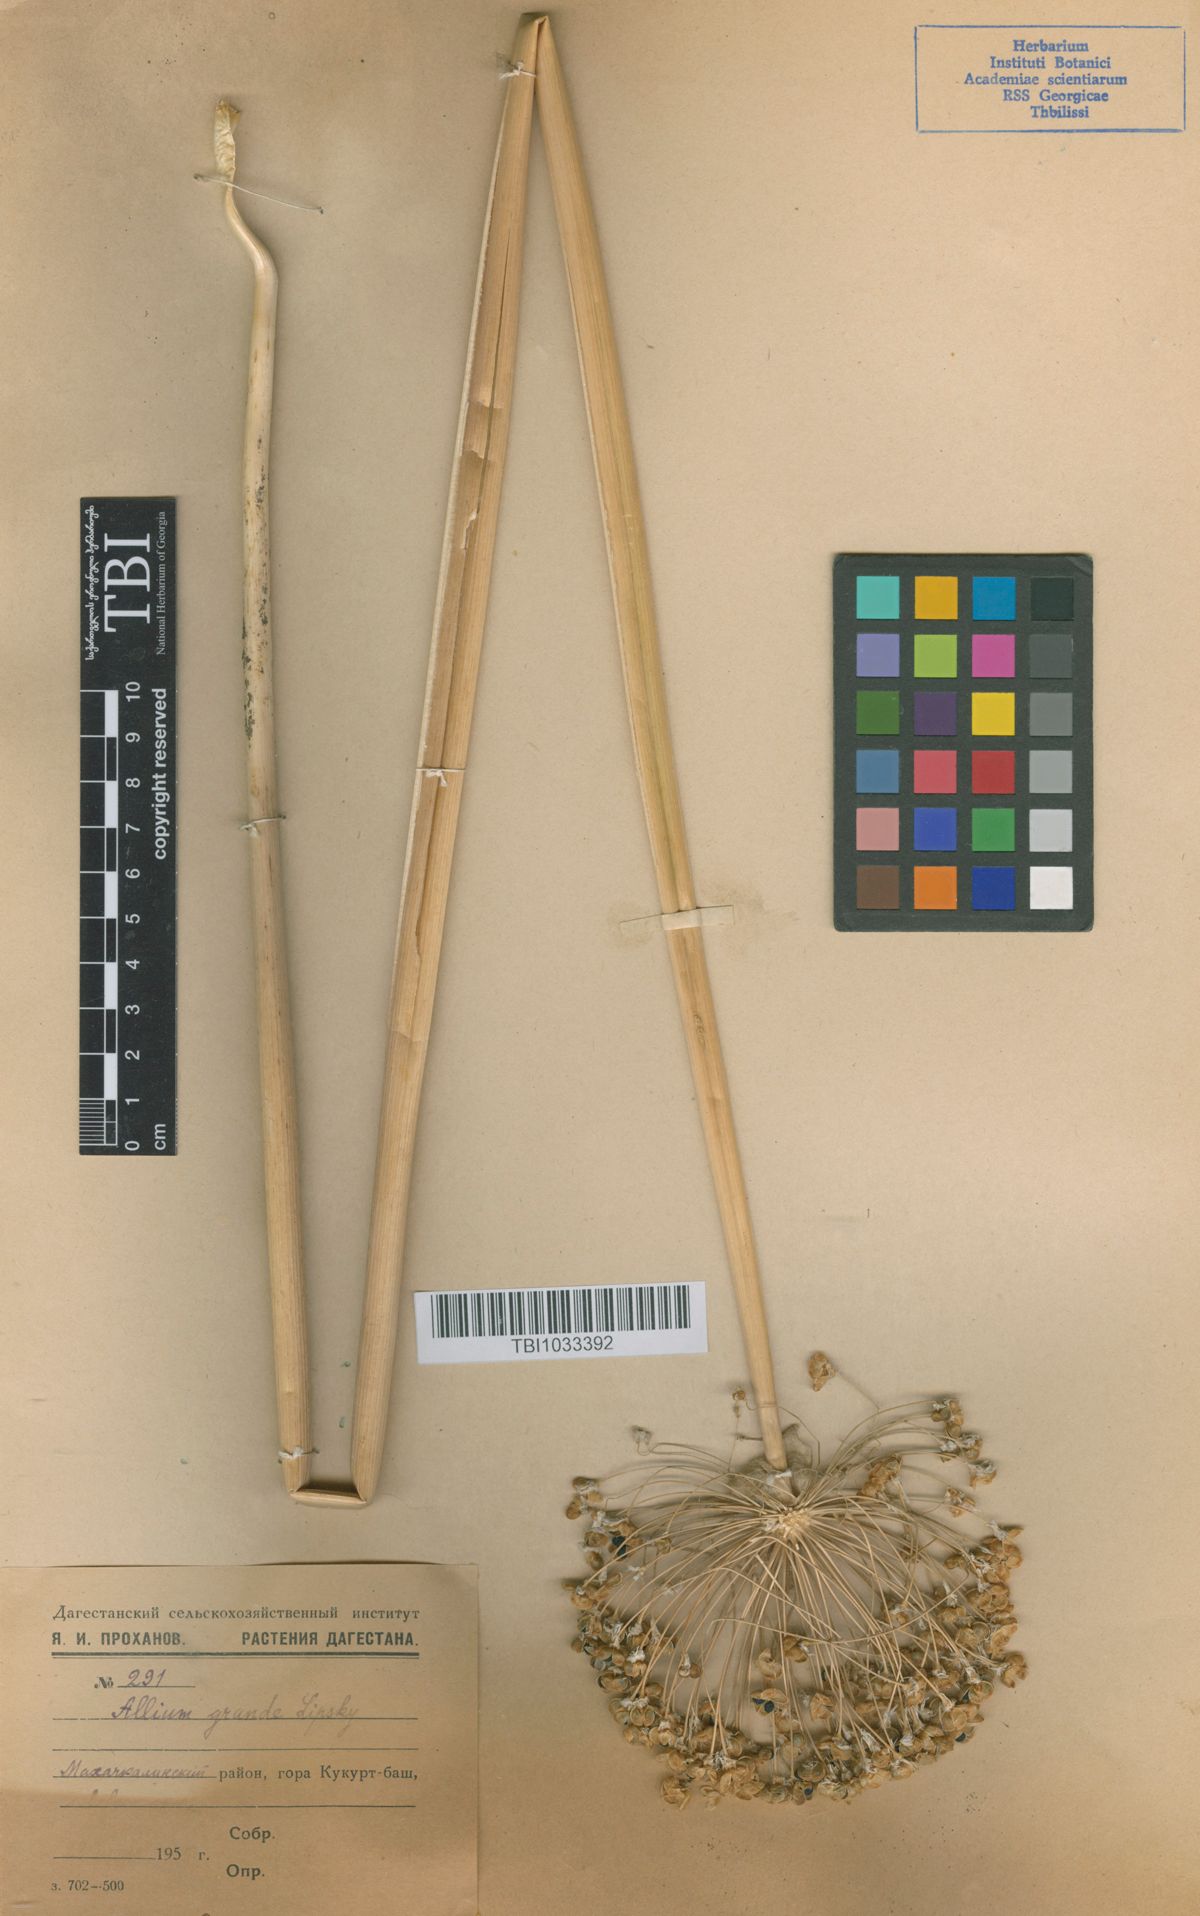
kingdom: Plantae
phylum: Tracheophyta
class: Liliopsida
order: Asparagales
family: Amaryllidaceae
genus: Allium
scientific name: Allium grande
